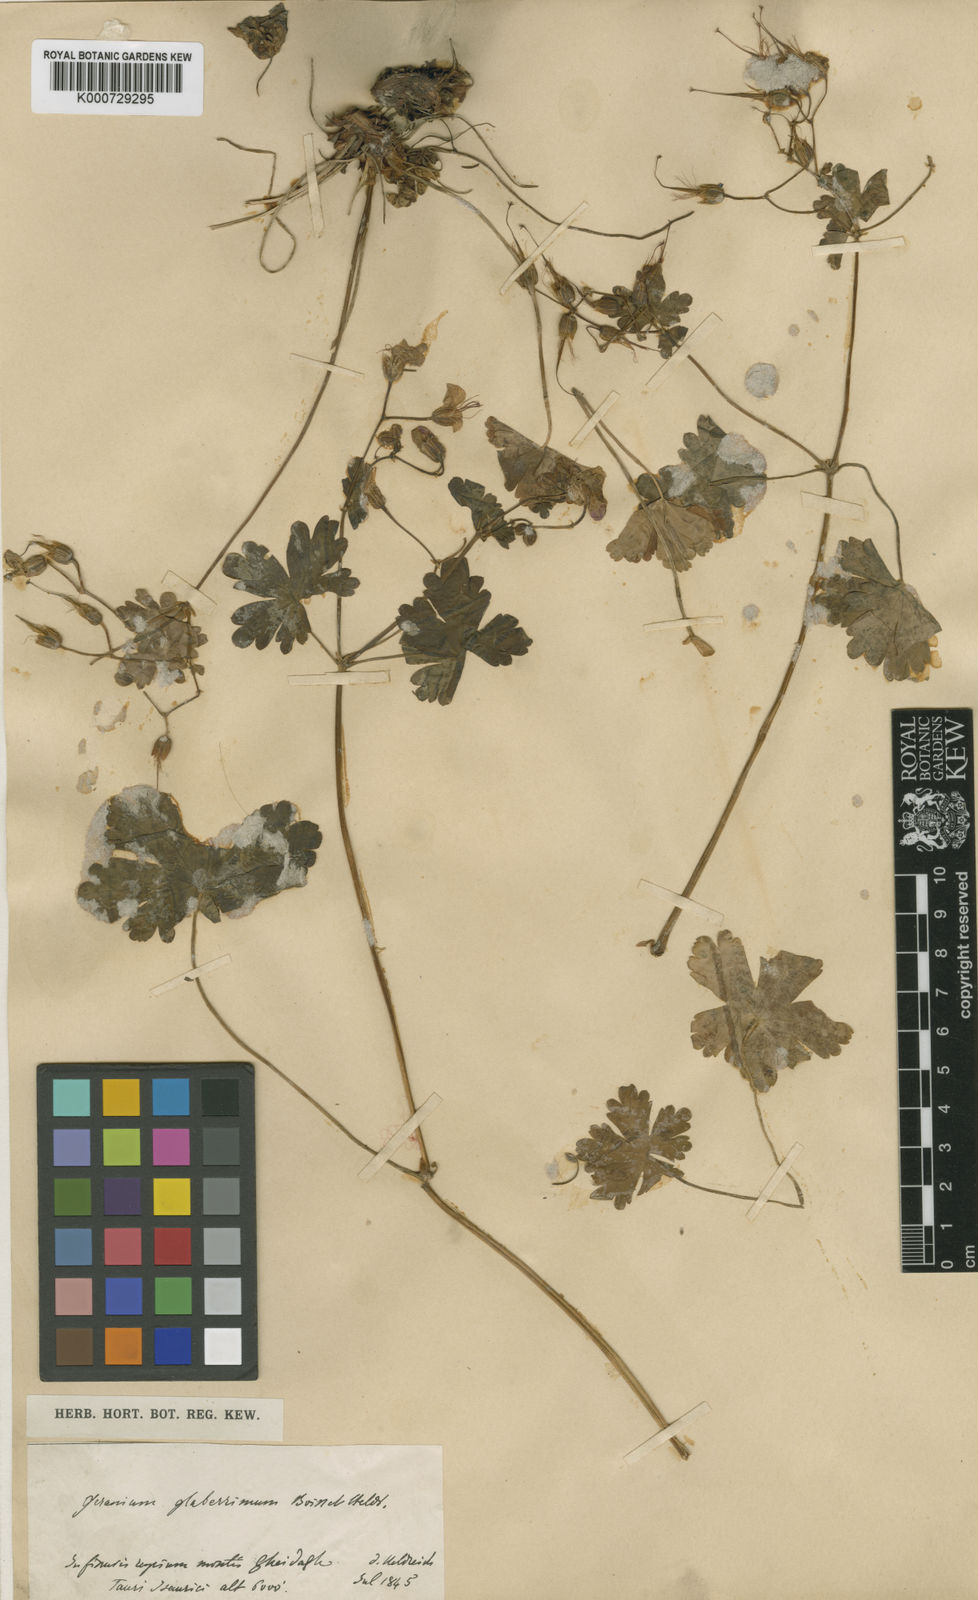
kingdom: Plantae
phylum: Tracheophyta
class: Magnoliopsida
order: Geraniales
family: Geraniaceae
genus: Geranium
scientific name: Geranium glaberrimum
